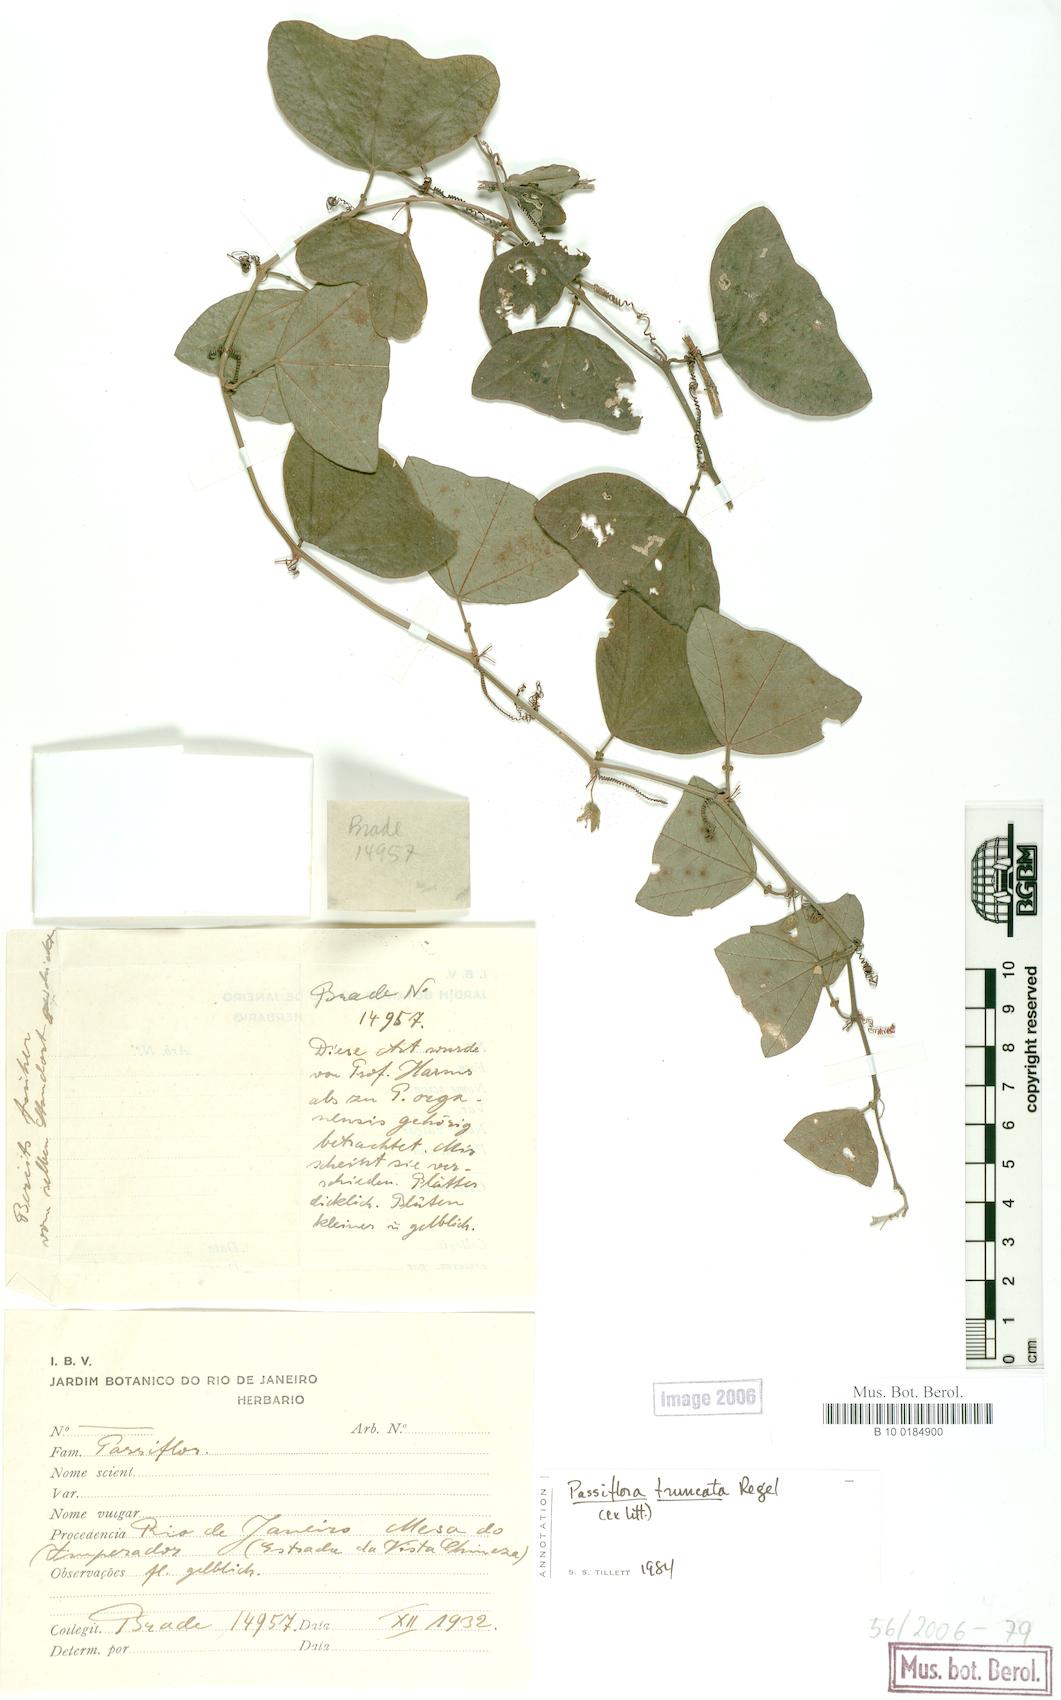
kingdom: Plantae
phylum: Tracheophyta
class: Magnoliopsida
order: Malpighiales
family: Passifloraceae
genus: Passiflora
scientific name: Passiflora truncata
